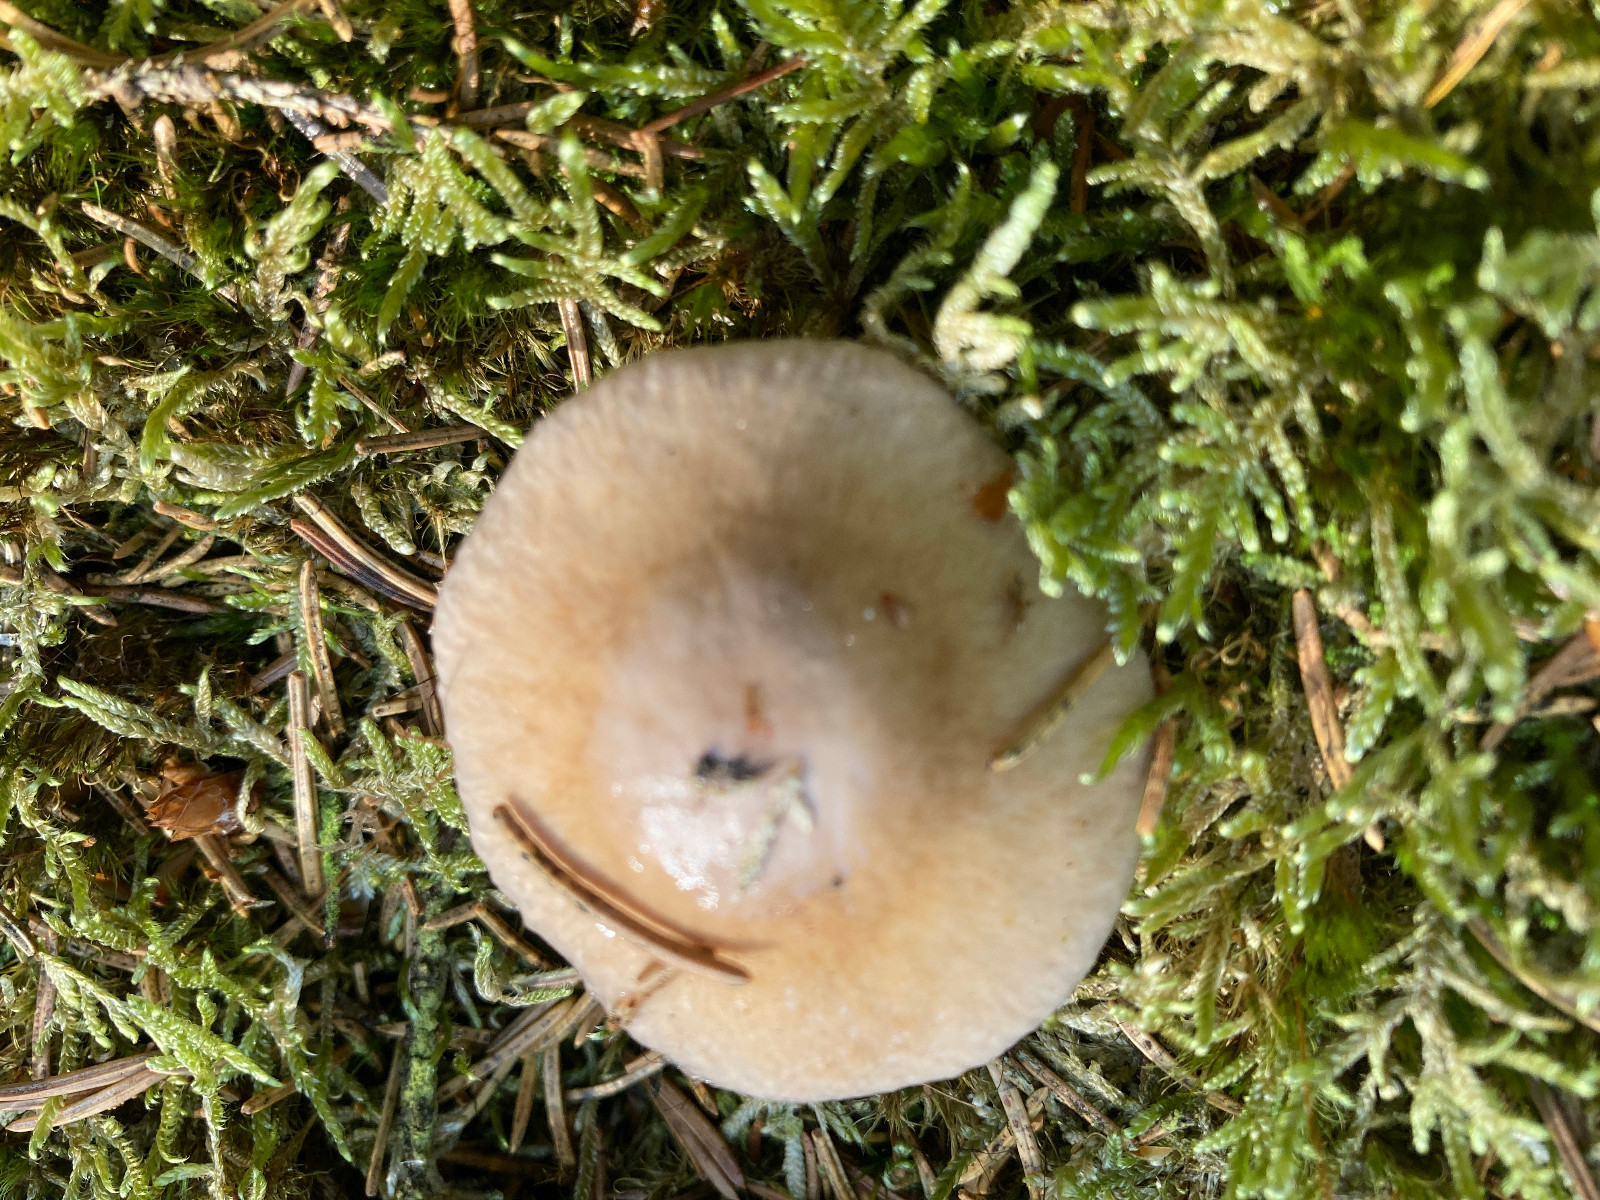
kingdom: Fungi
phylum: Basidiomycota
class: Agaricomycetes
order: Agaricales
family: Cortinariaceae
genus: Cortinarius
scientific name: Cortinarius
